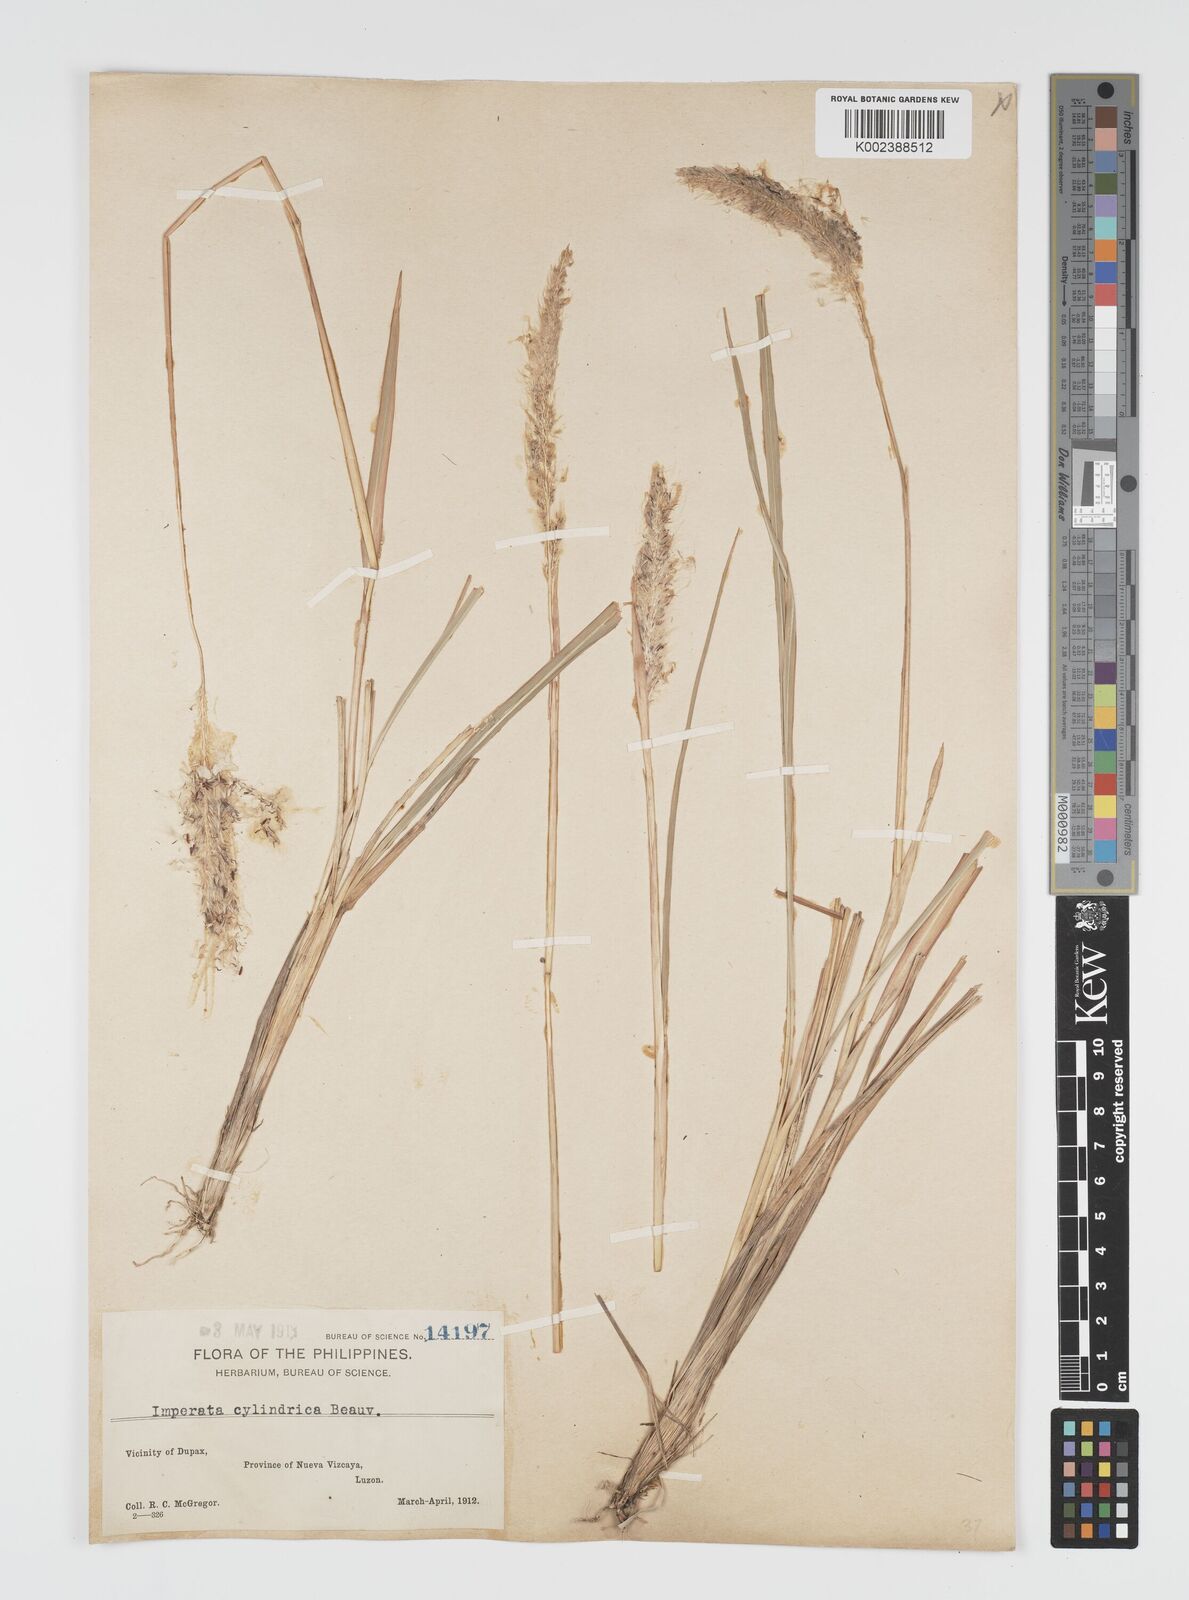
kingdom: Plantae
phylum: Tracheophyta
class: Liliopsida
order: Poales
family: Poaceae
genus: Imperata
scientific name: Imperata cylindrica
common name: Cogongrass
